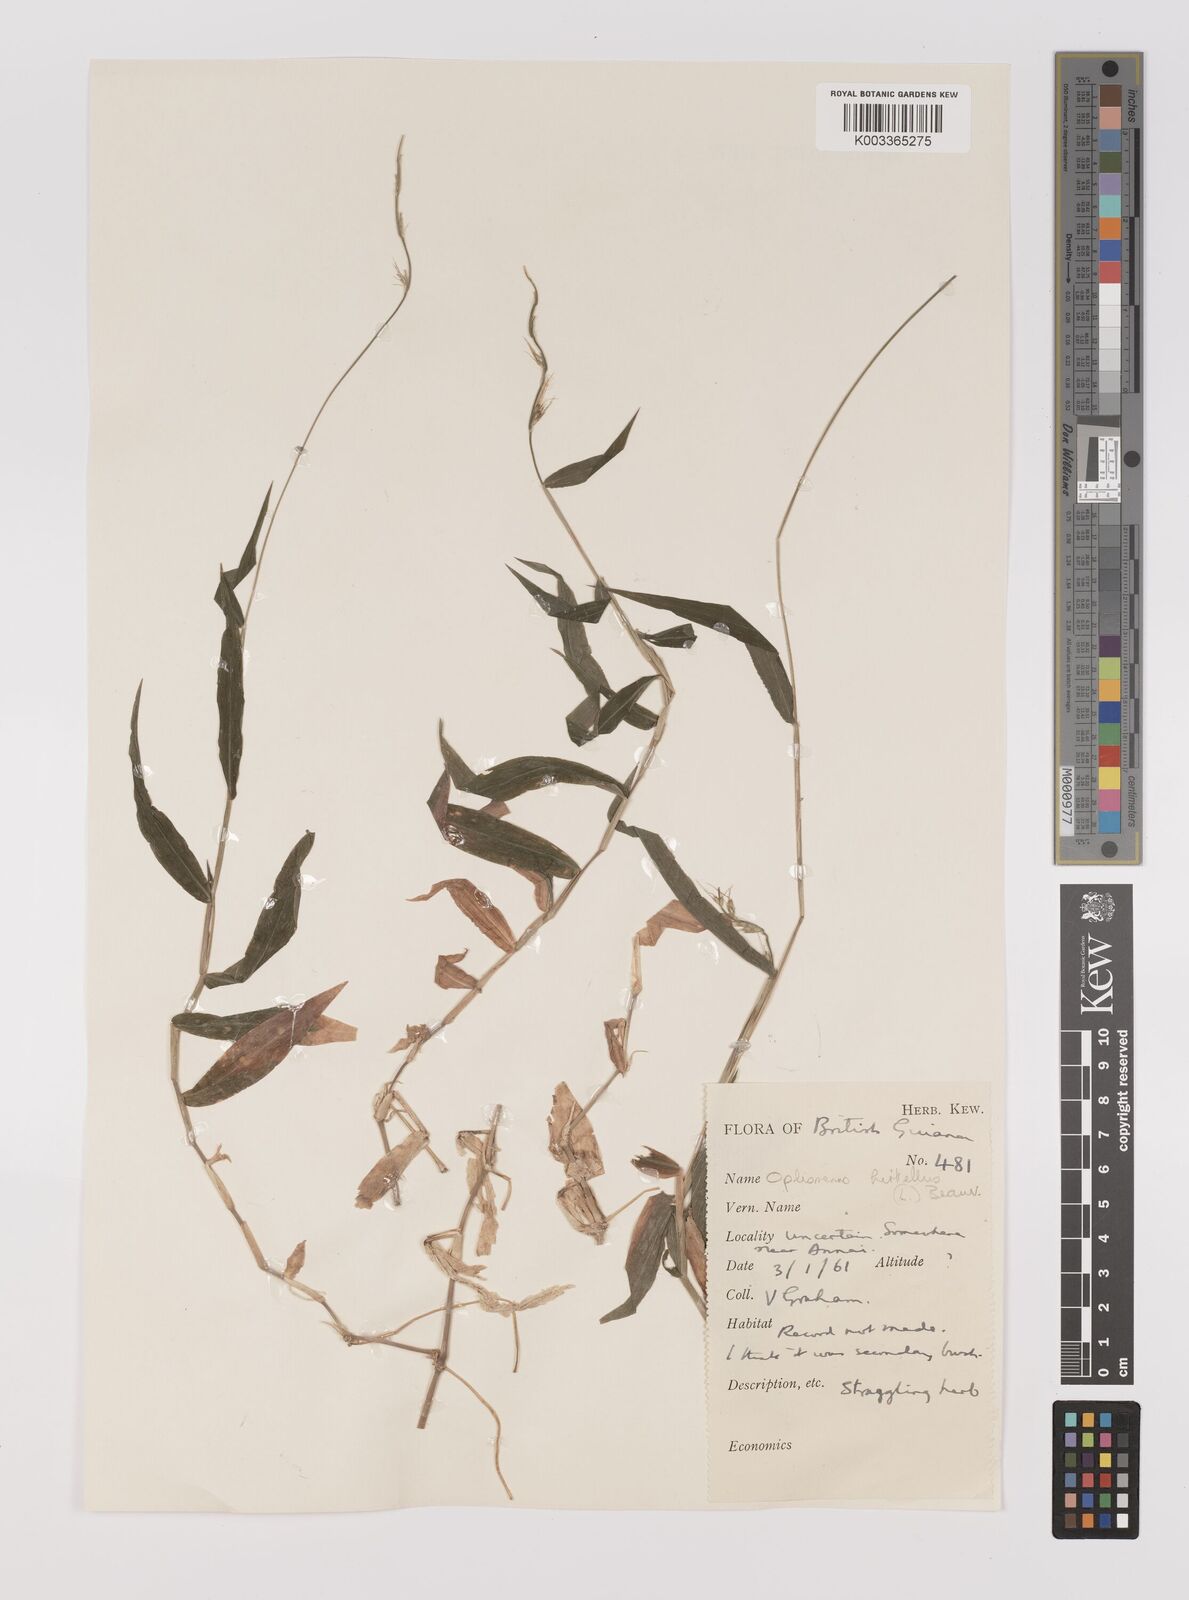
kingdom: Plantae
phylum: Tracheophyta
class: Liliopsida
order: Poales
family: Poaceae
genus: Oplismenus
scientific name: Oplismenus hirtellus
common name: Basketgrass
